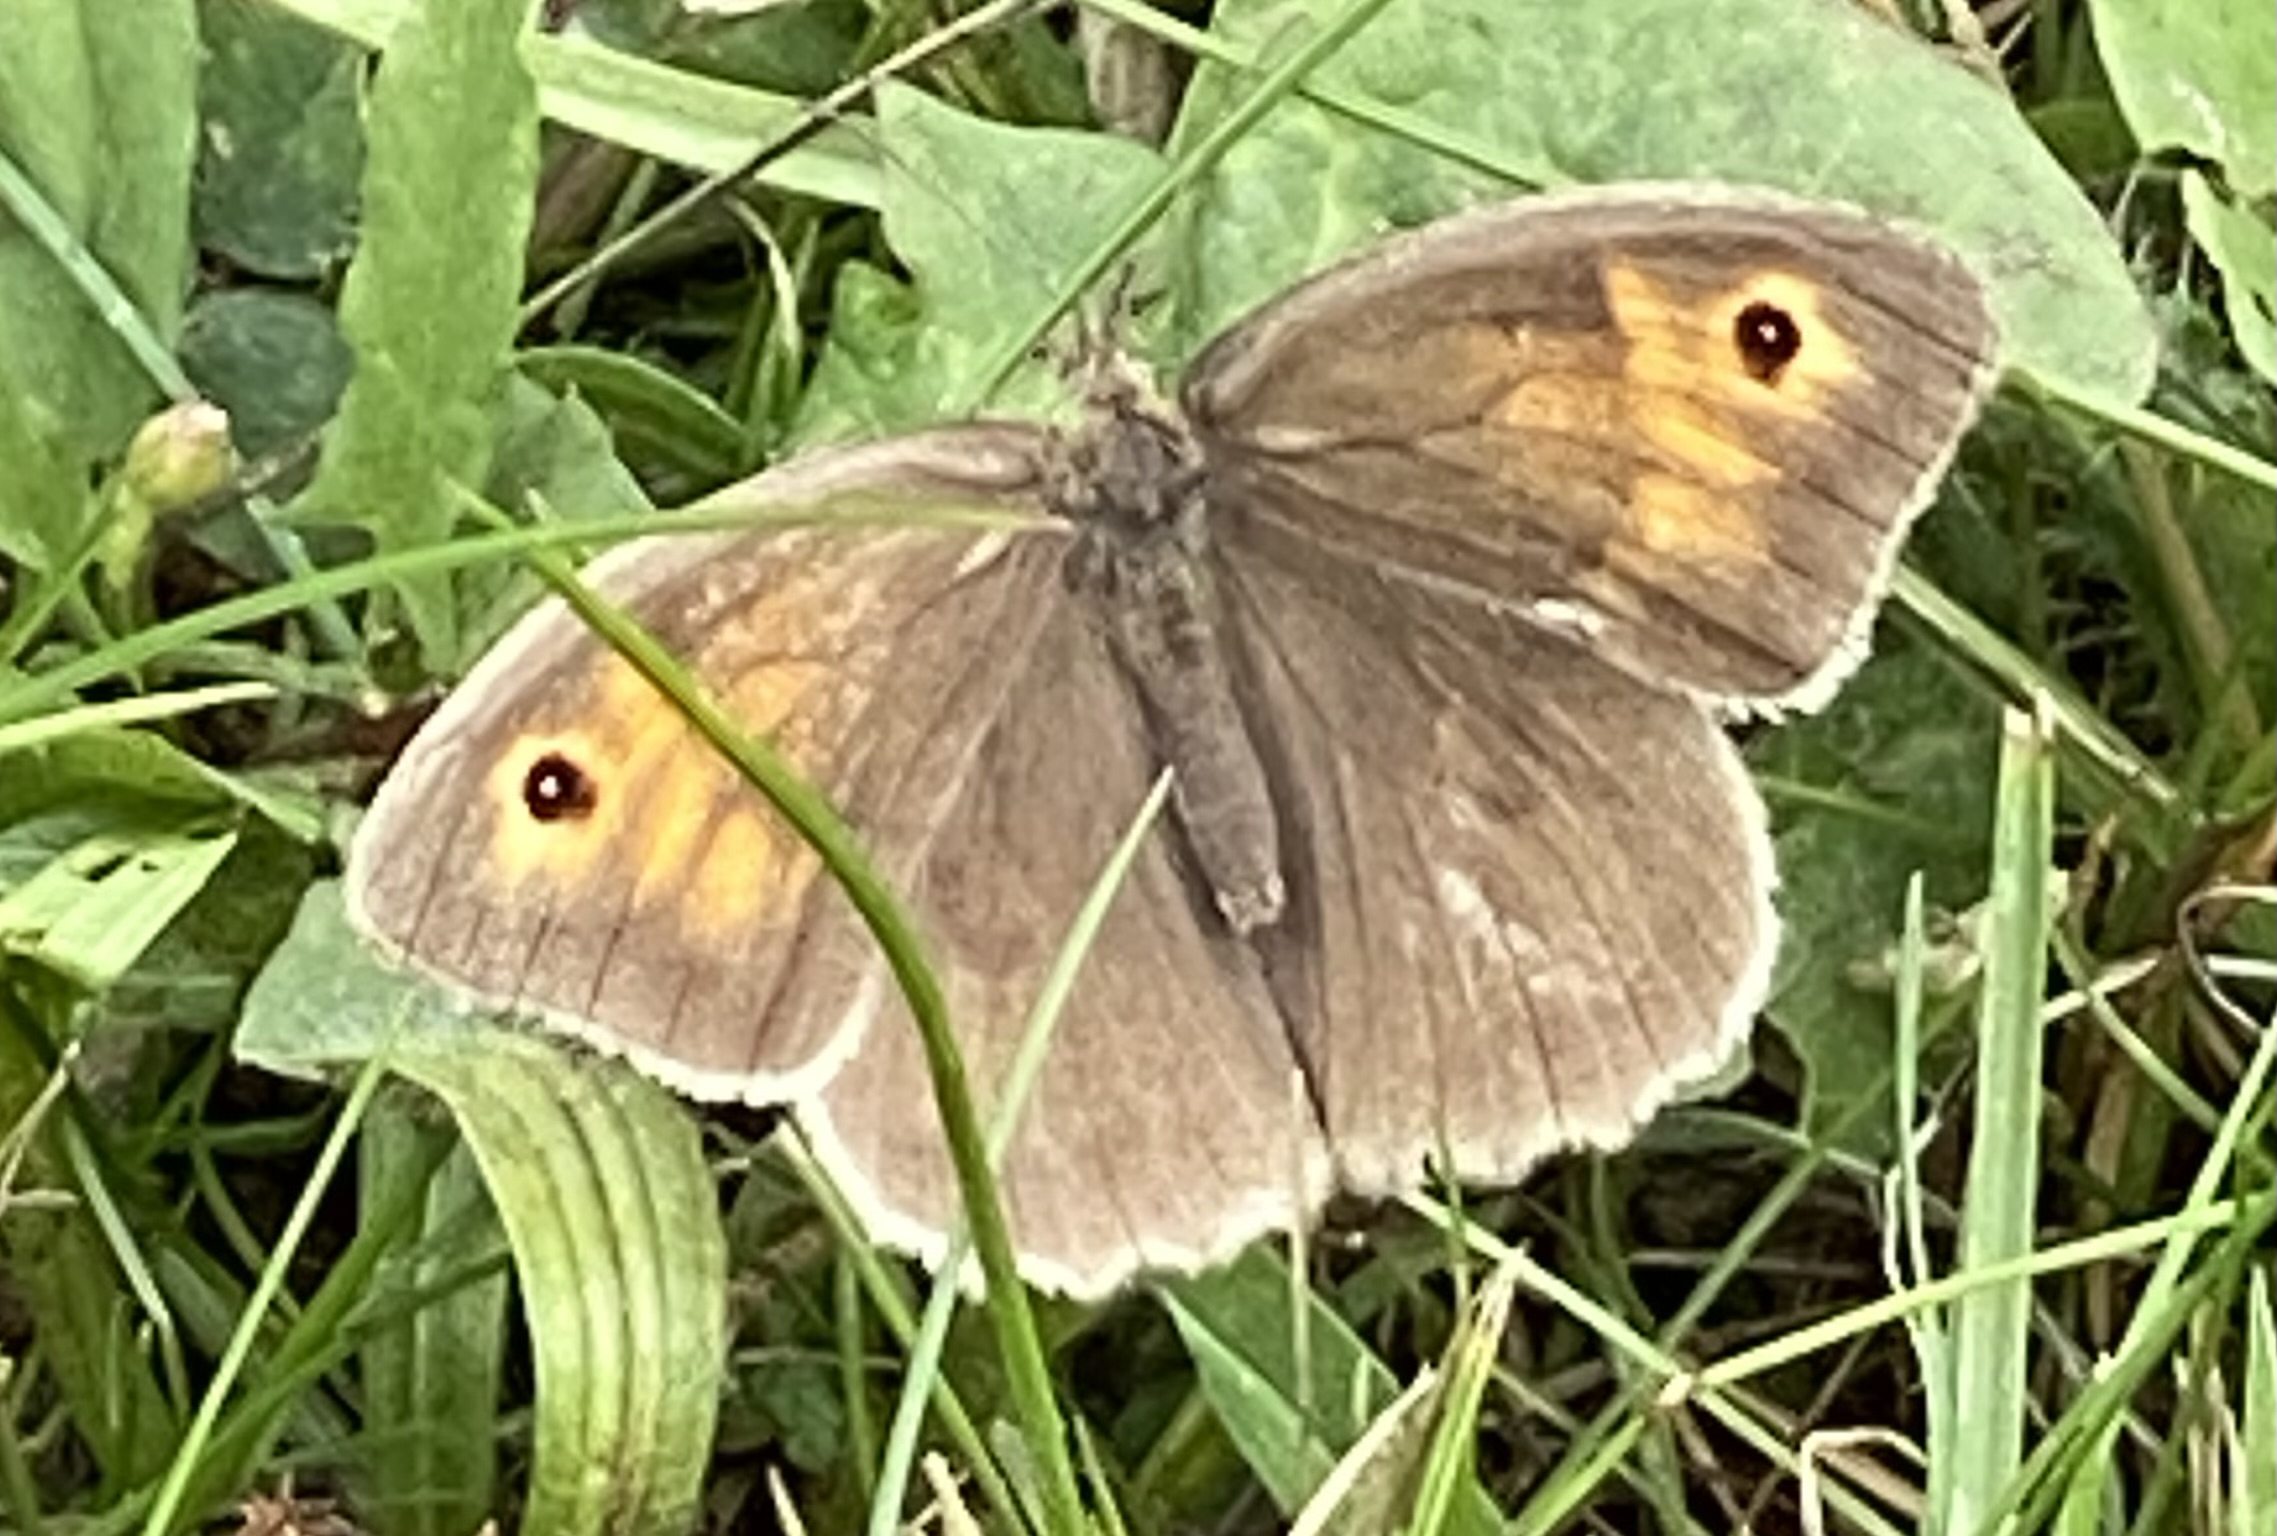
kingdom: Animalia
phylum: Arthropoda
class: Insecta
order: Lepidoptera
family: Nymphalidae
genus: Maniola
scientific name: Maniola jurtina
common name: Græsrandøje
